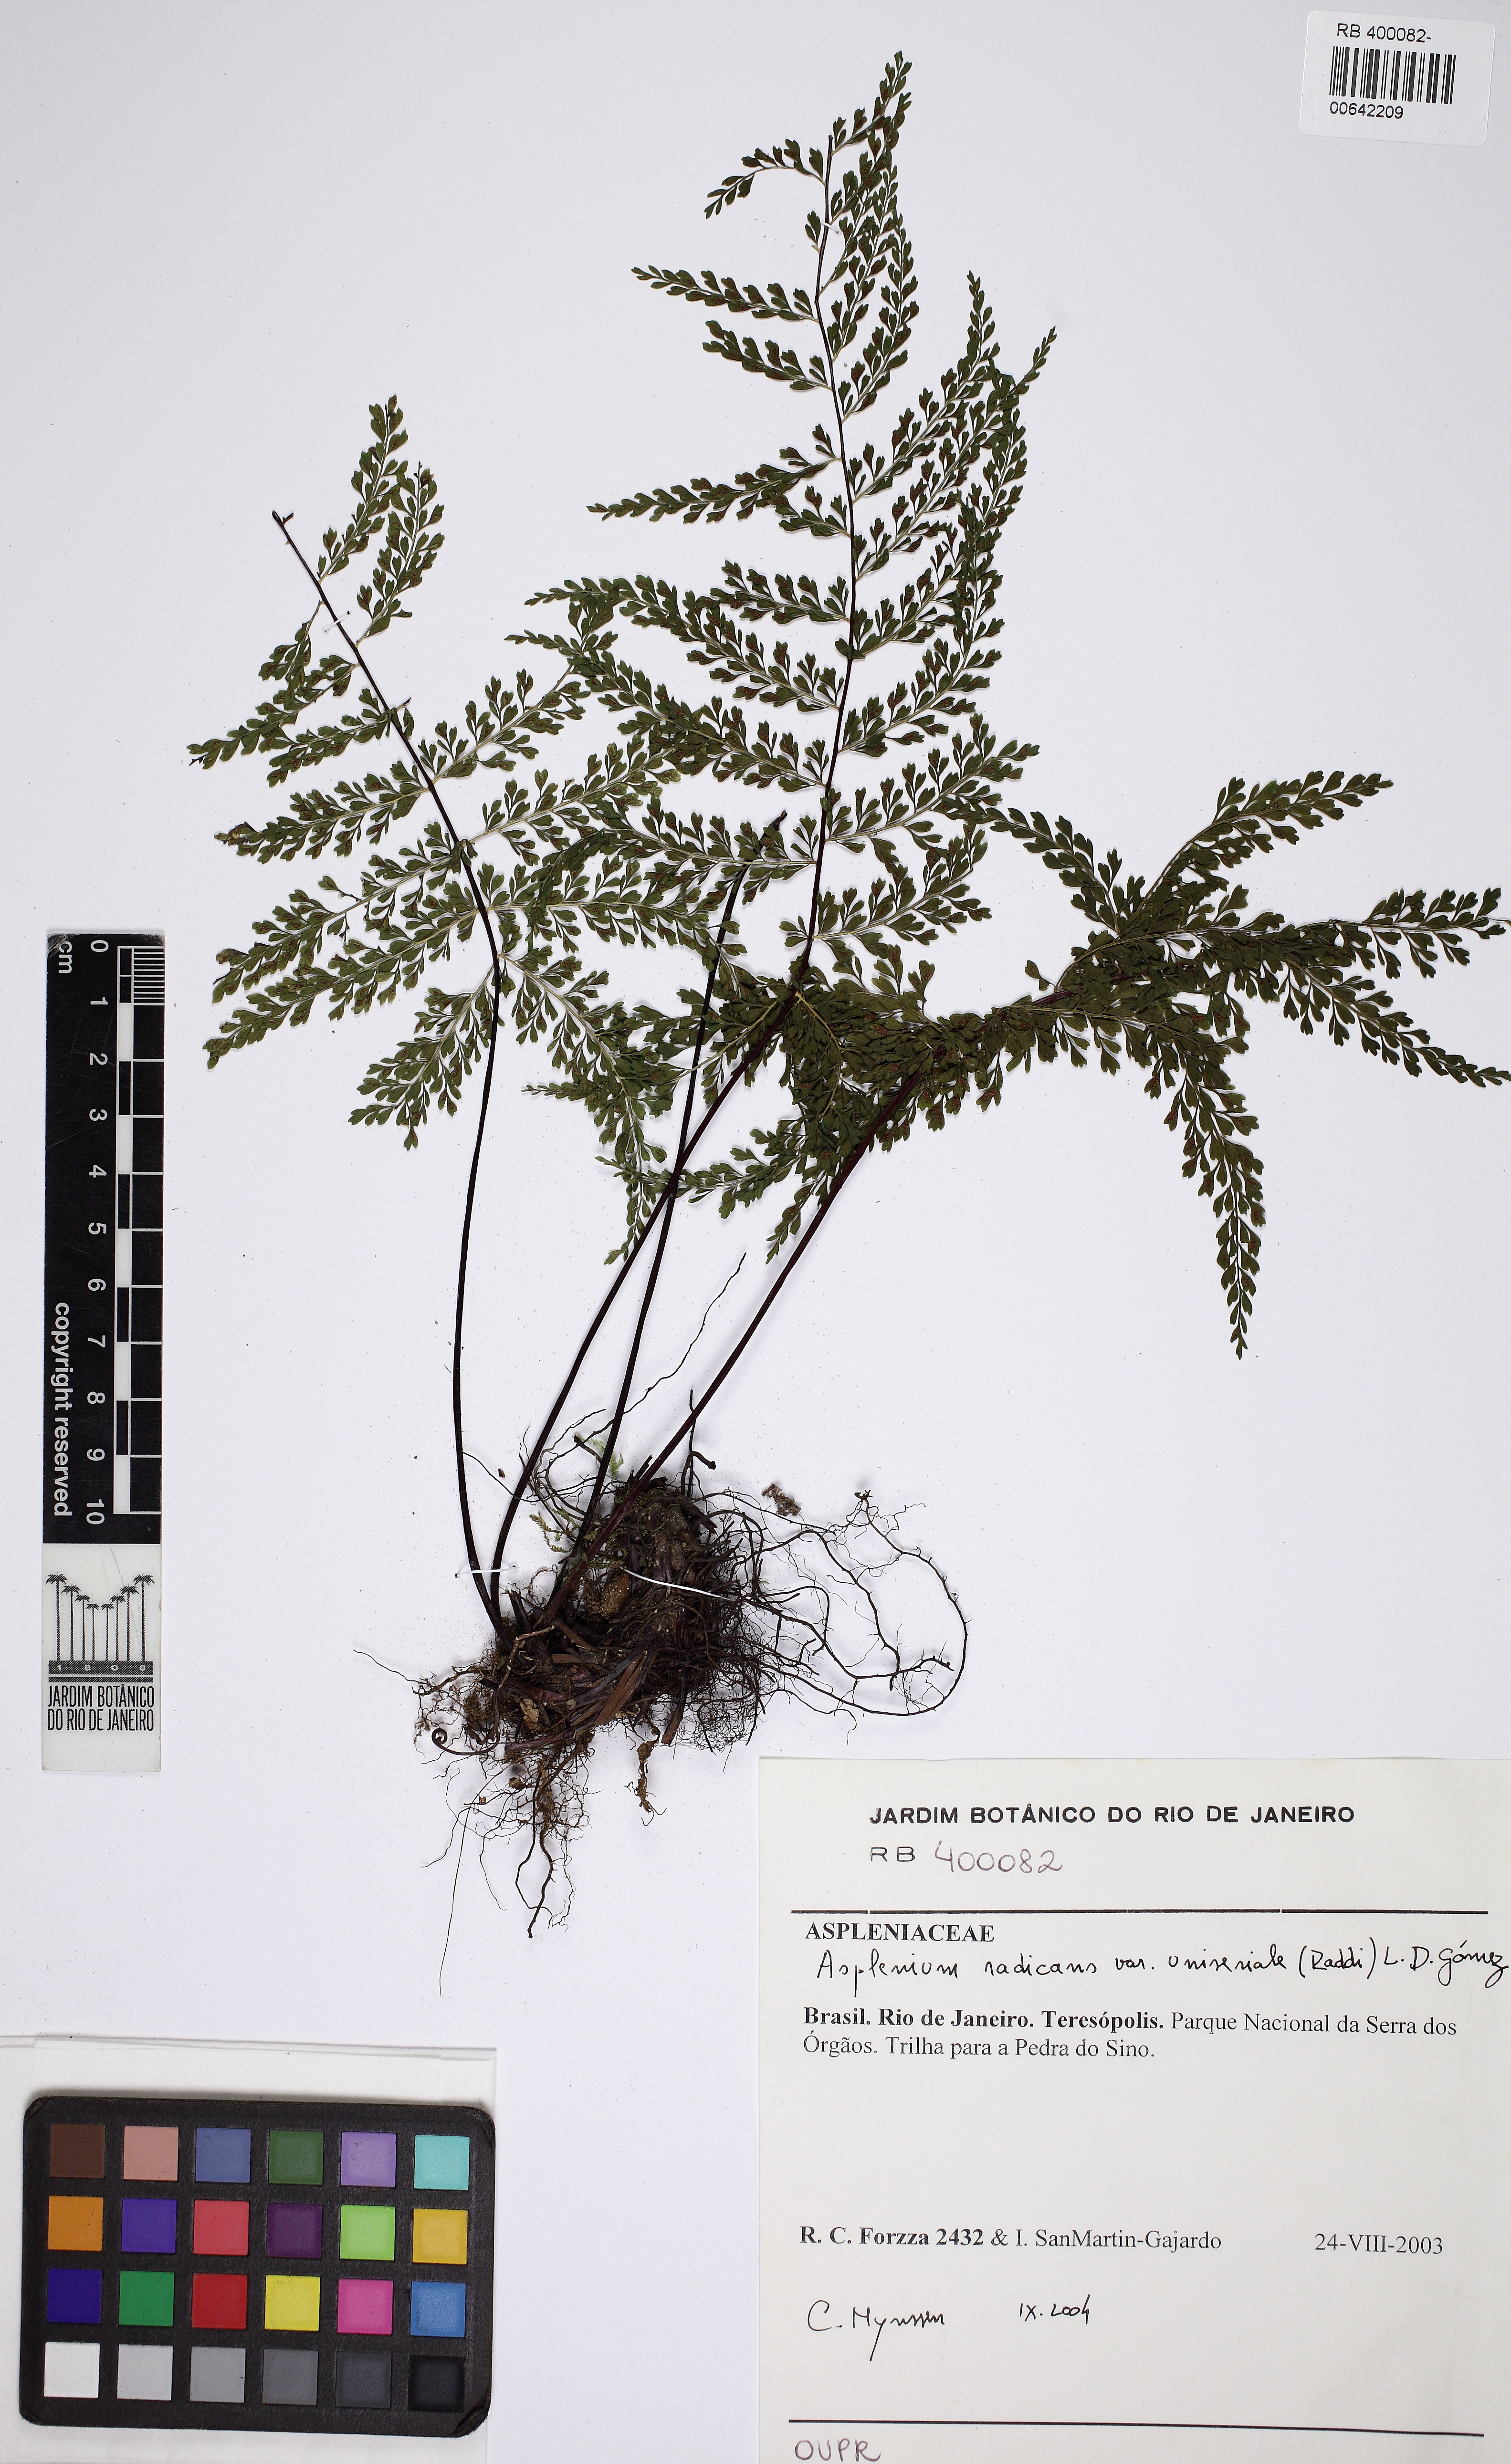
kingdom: Plantae
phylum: Tracheophyta
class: Polypodiopsida
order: Polypodiales
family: Aspleniaceae
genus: Asplenium
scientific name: Asplenium uniseriale
